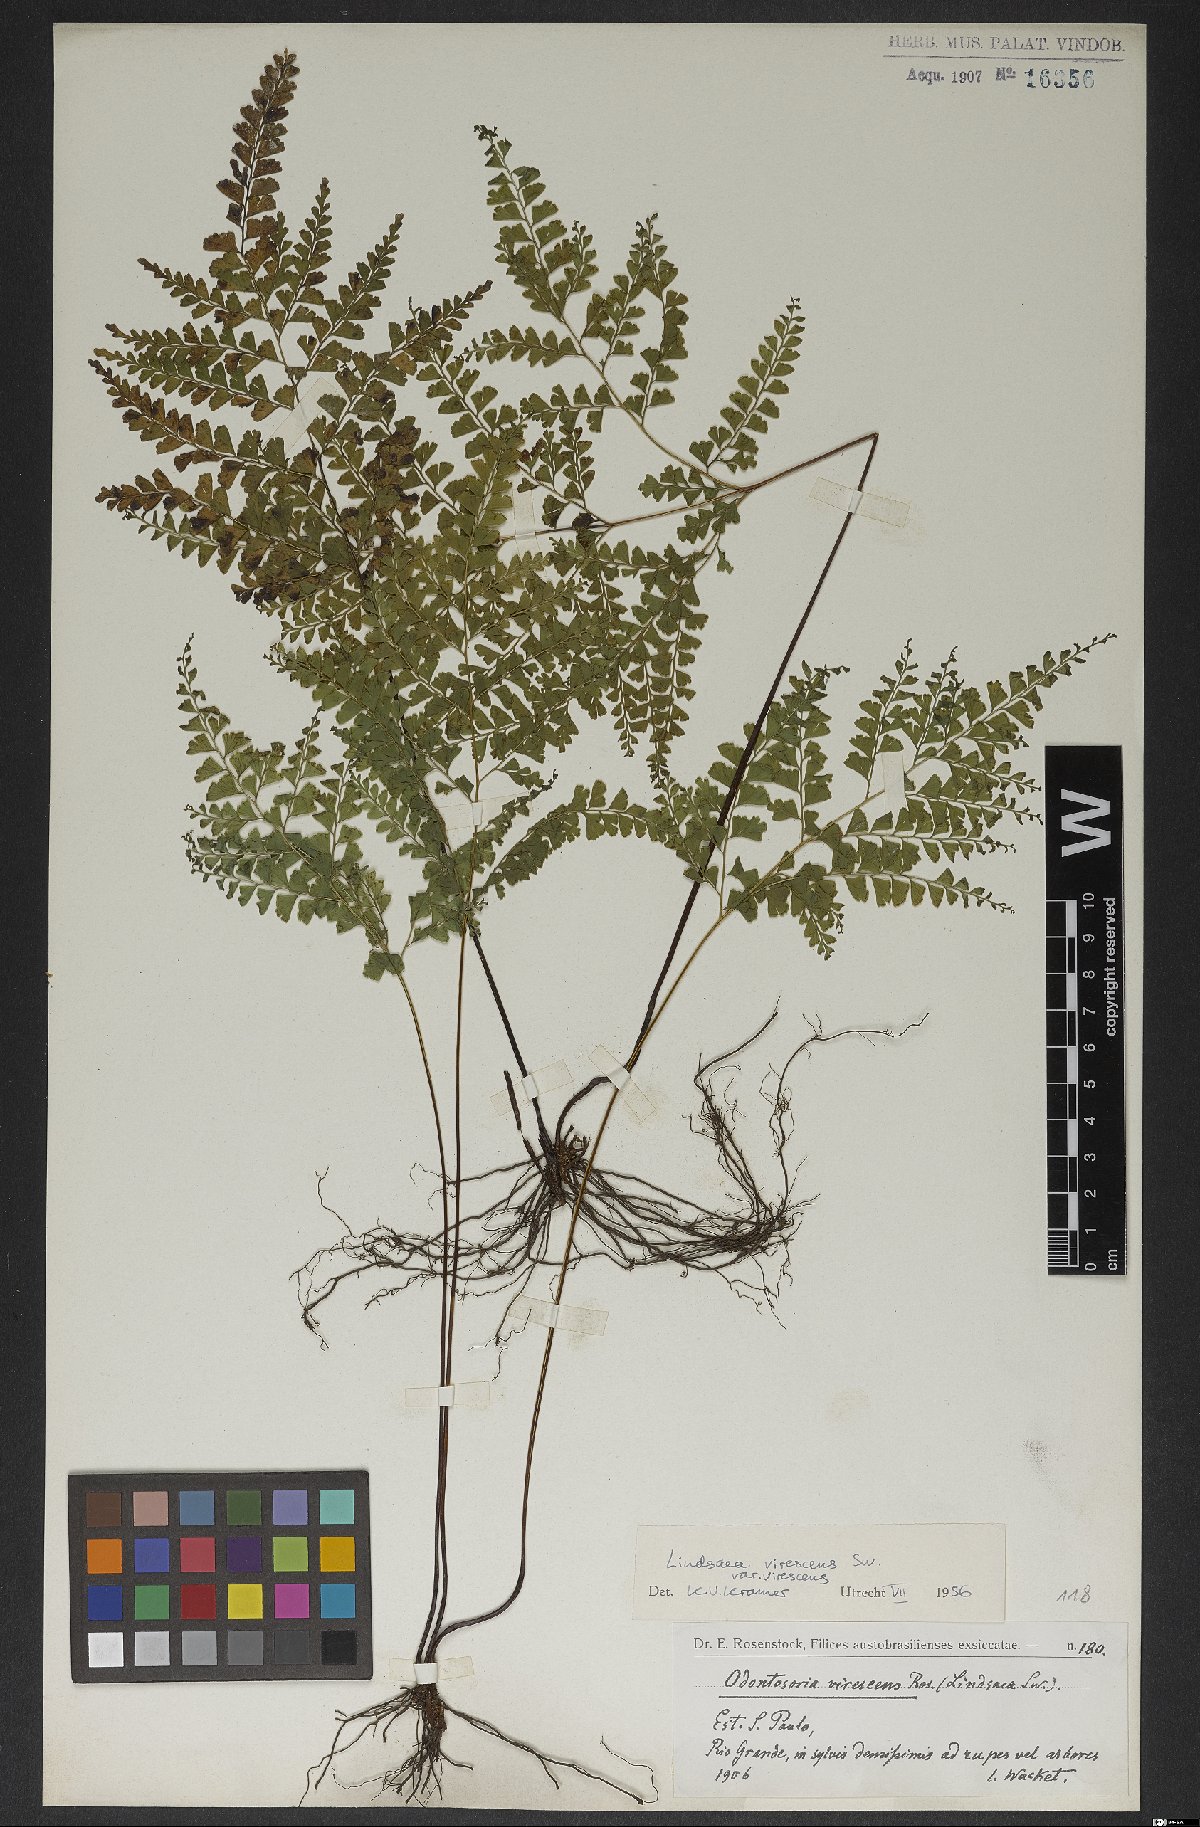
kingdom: Plantae
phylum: Tracheophyta
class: Polypodiopsida
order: Polypodiales
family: Lindsaeaceae
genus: Lindsaea
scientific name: Lindsaea virescens
